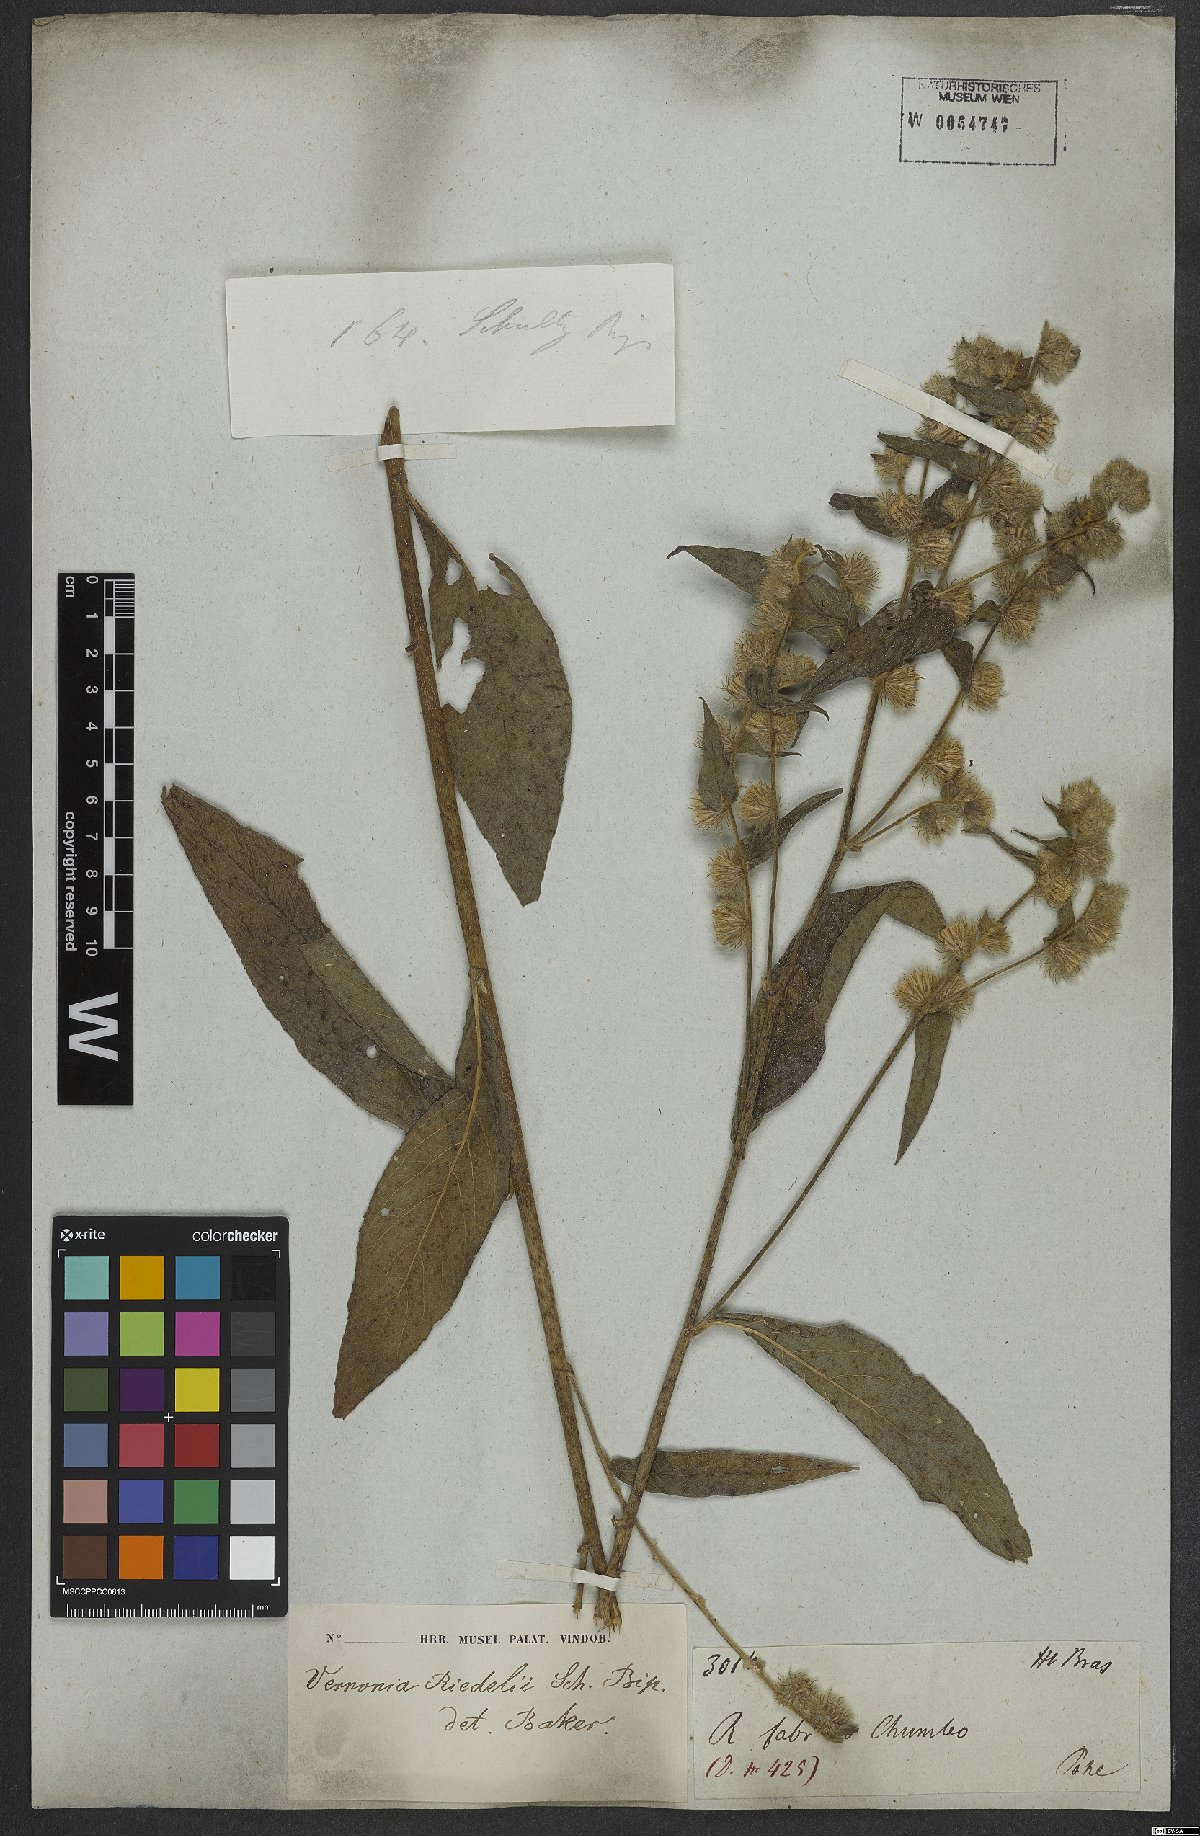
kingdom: Plantae
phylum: Tracheophyta
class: Magnoliopsida
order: Asterales
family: Asteraceae
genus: Lepidaploa
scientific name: Lepidaploa eriolepis
